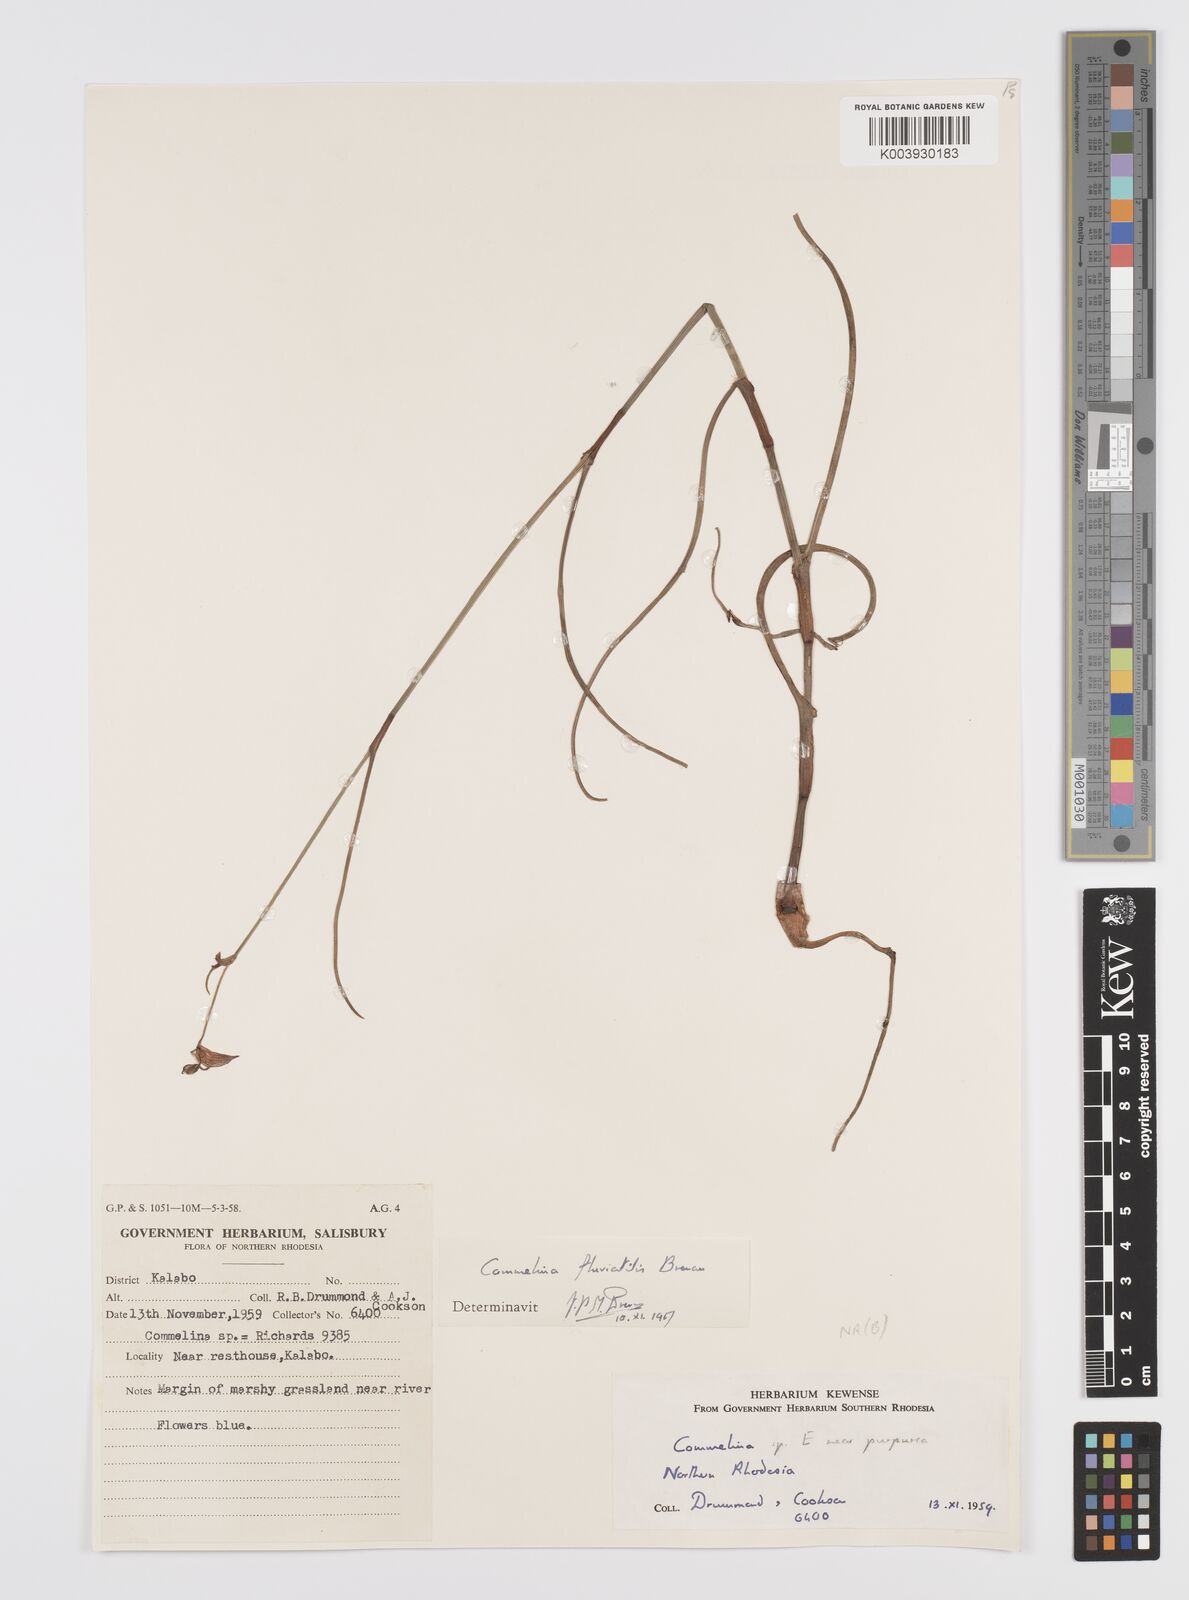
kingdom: Plantae
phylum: Tracheophyta
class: Liliopsida
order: Commelinales
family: Commelinaceae
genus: Commelina
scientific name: Commelina fluviatilis
